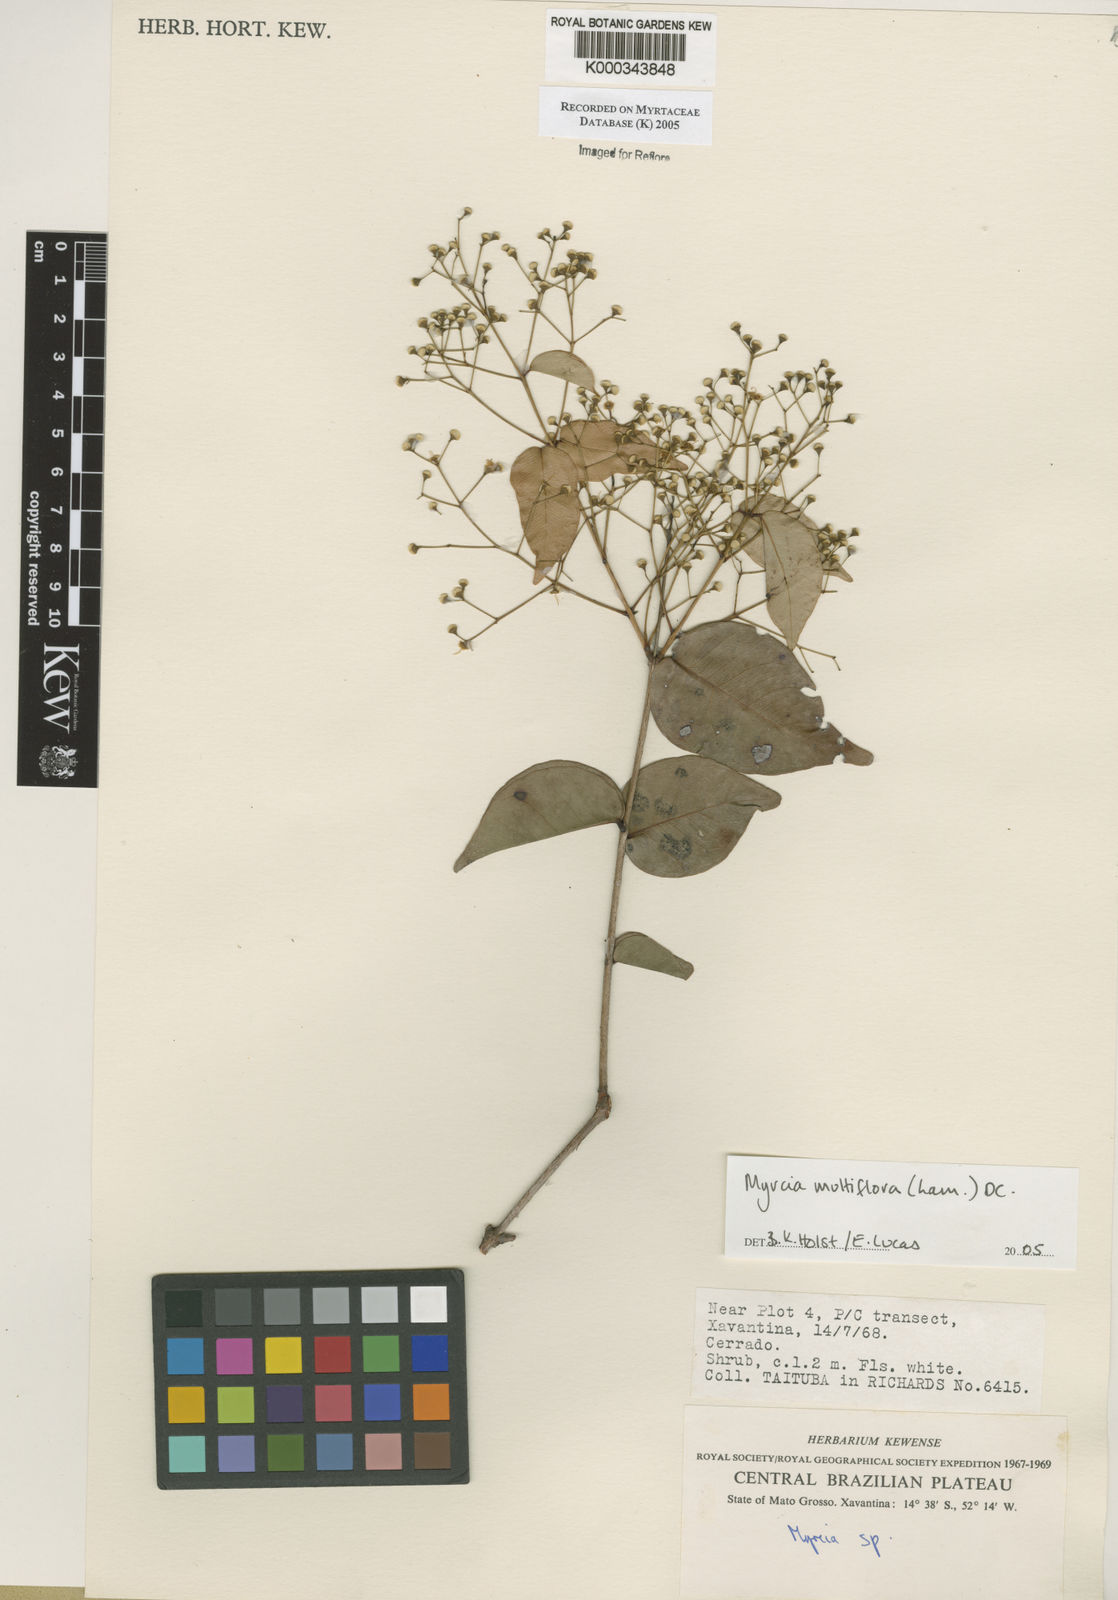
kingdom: Plantae
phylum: Tracheophyta
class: Magnoliopsida
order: Myrtales
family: Myrtaceae
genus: Myrcia
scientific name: Myrcia multiflora
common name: Pedra hume
